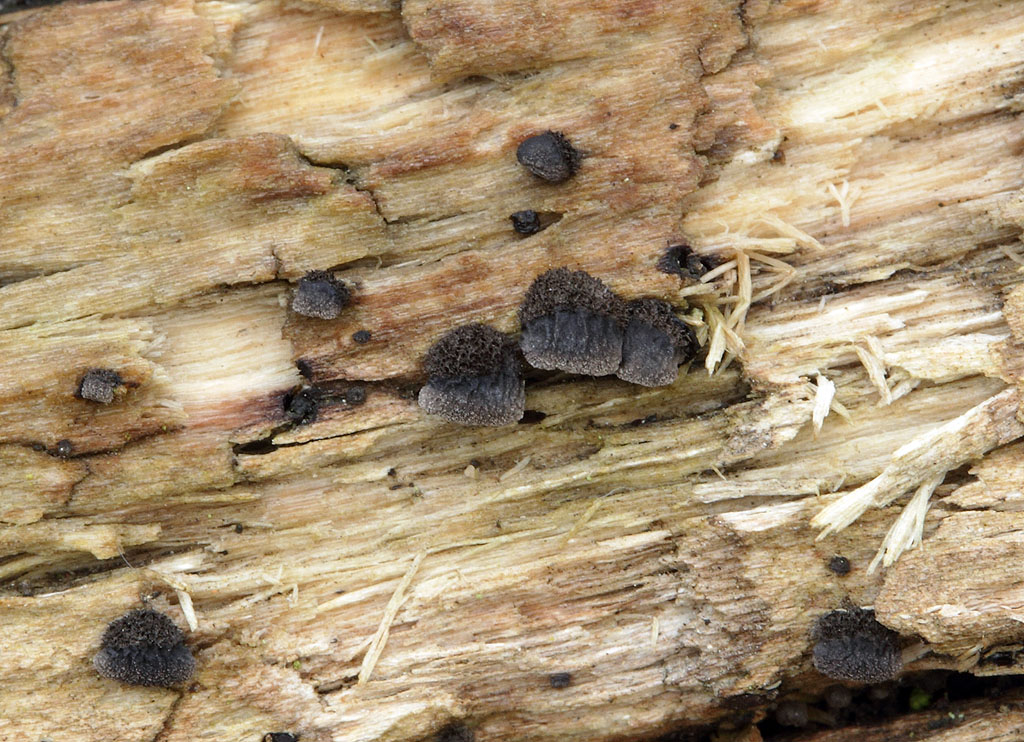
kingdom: Fungi
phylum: Basidiomycota
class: Agaricomycetes
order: Agaricales
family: Pleurotaceae
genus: Resupinatus
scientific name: Resupinatus trichotis
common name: mørkfiltet barkhat
